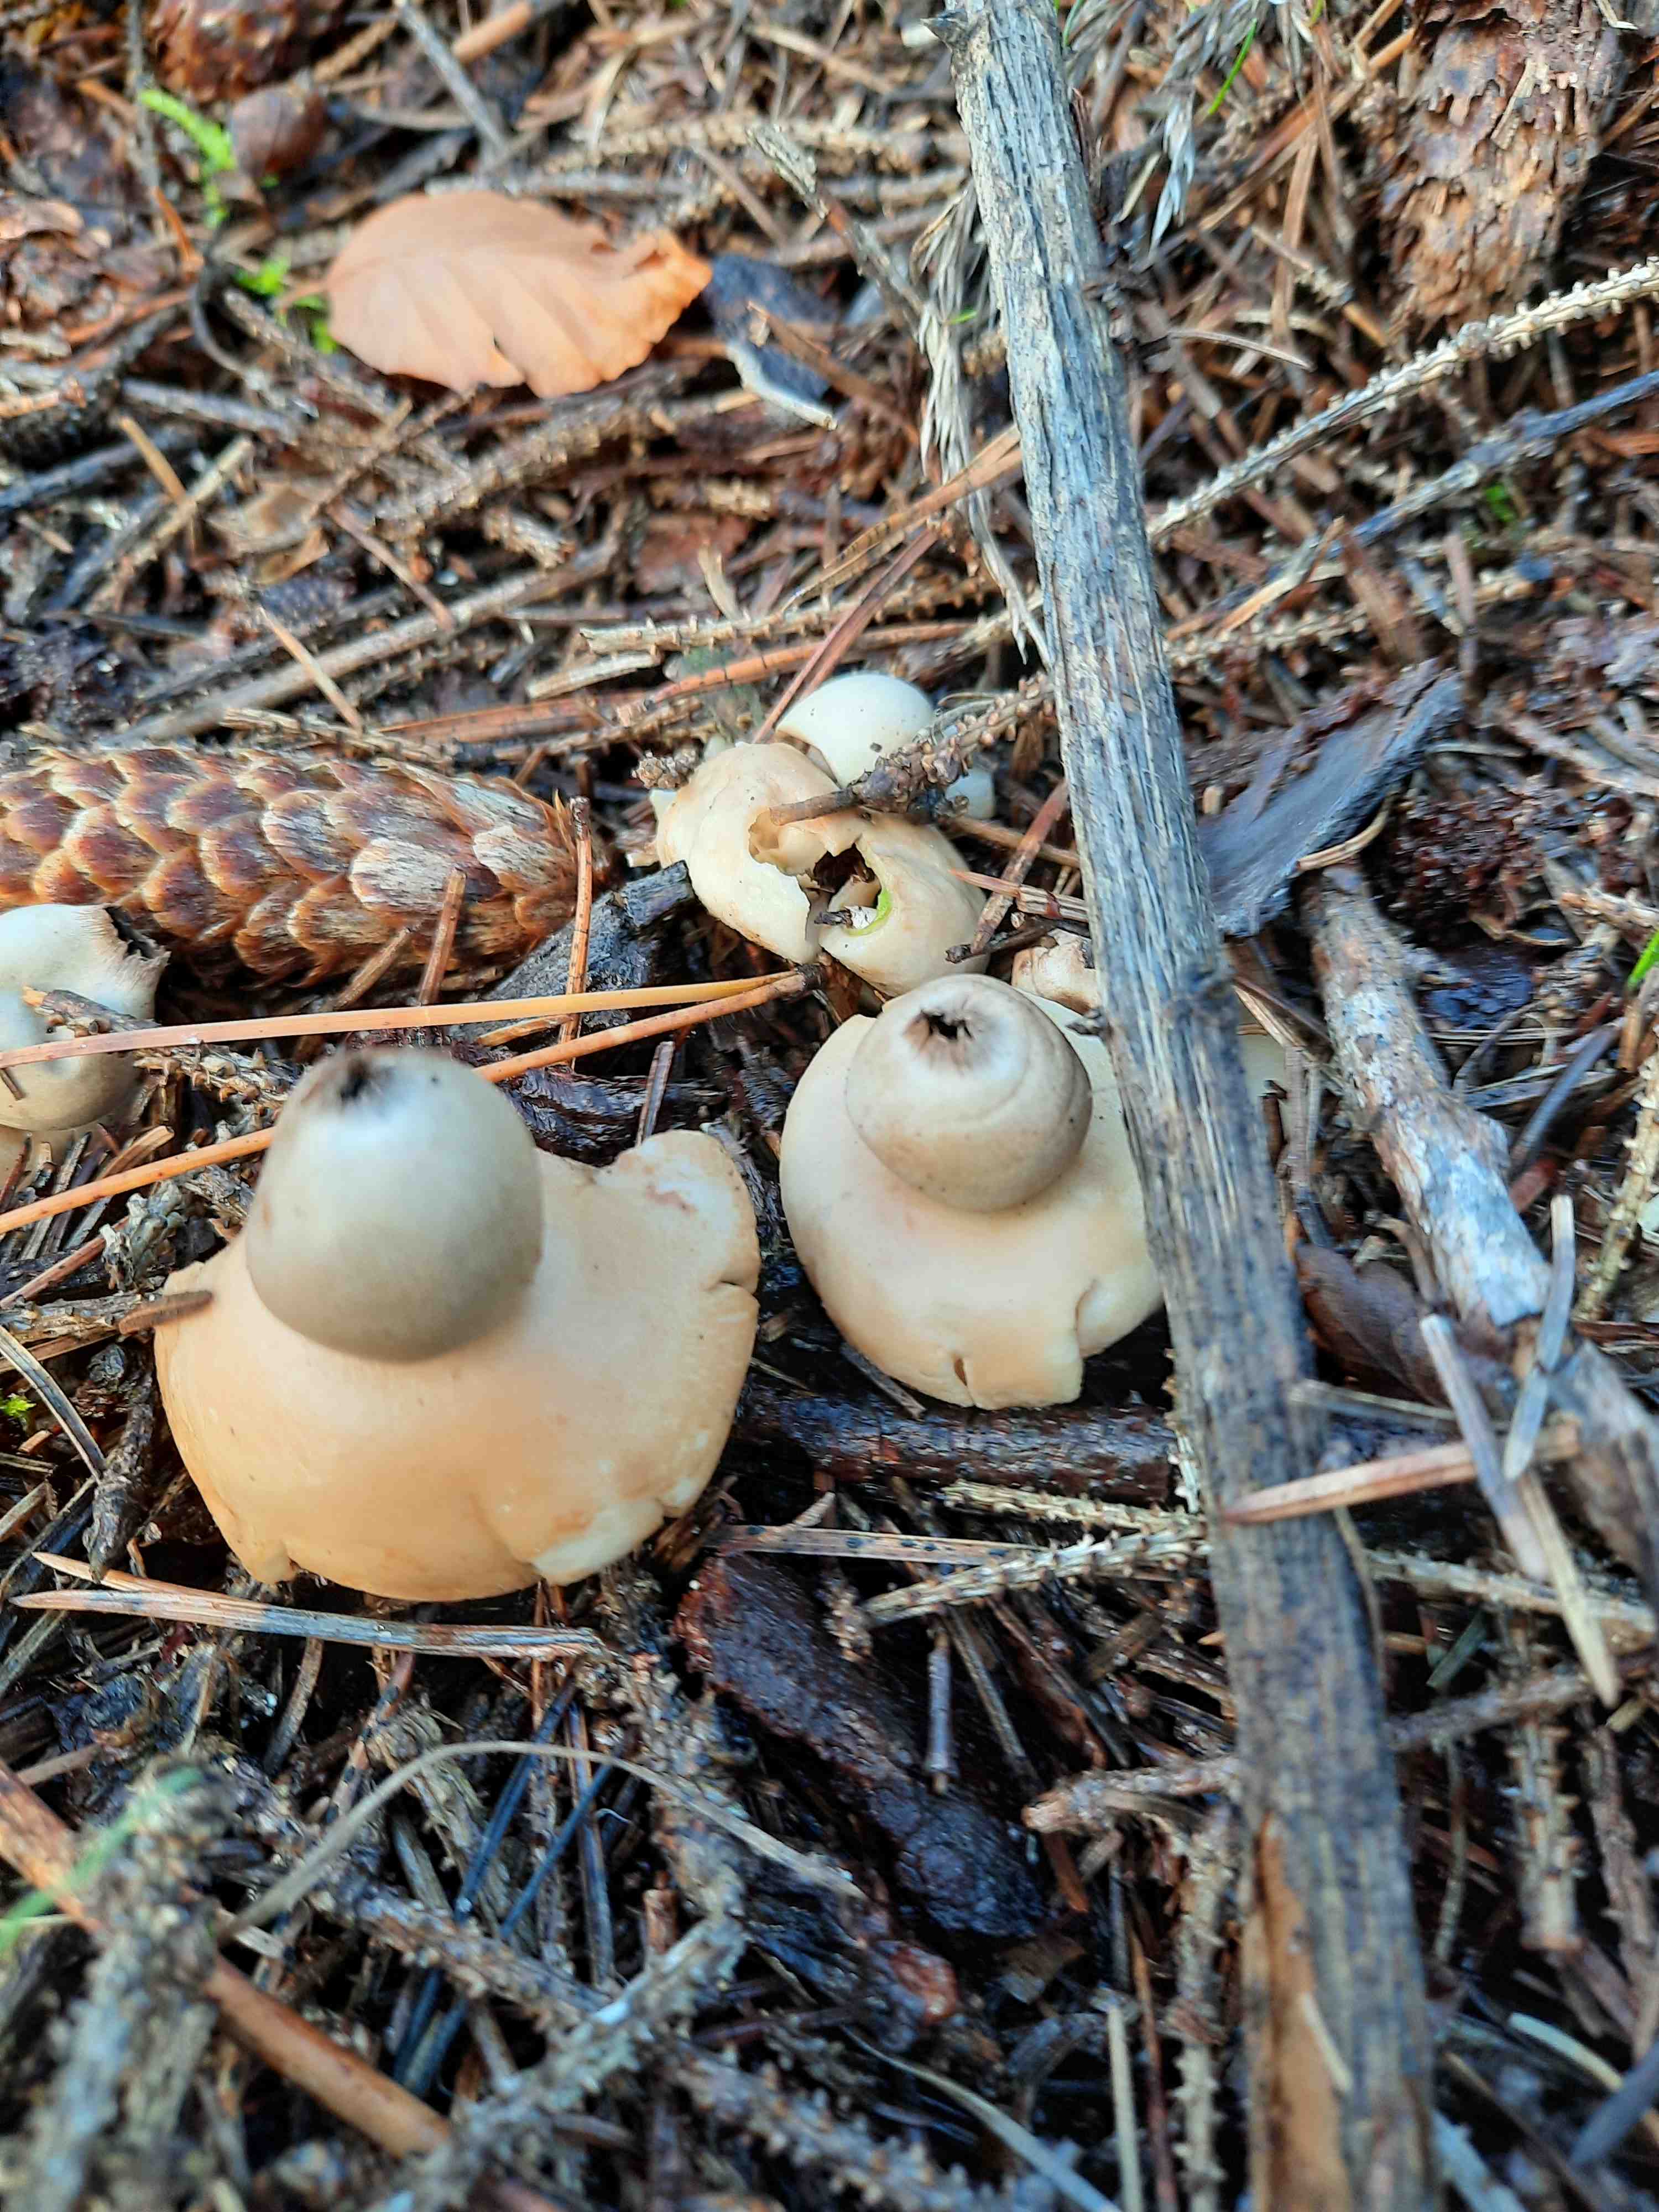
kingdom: Fungi
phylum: Basidiomycota
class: Agaricomycetes
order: Geastrales
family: Geastraceae
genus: Geastrum
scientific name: Geastrum fimbriatum
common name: frynset stjernebold
